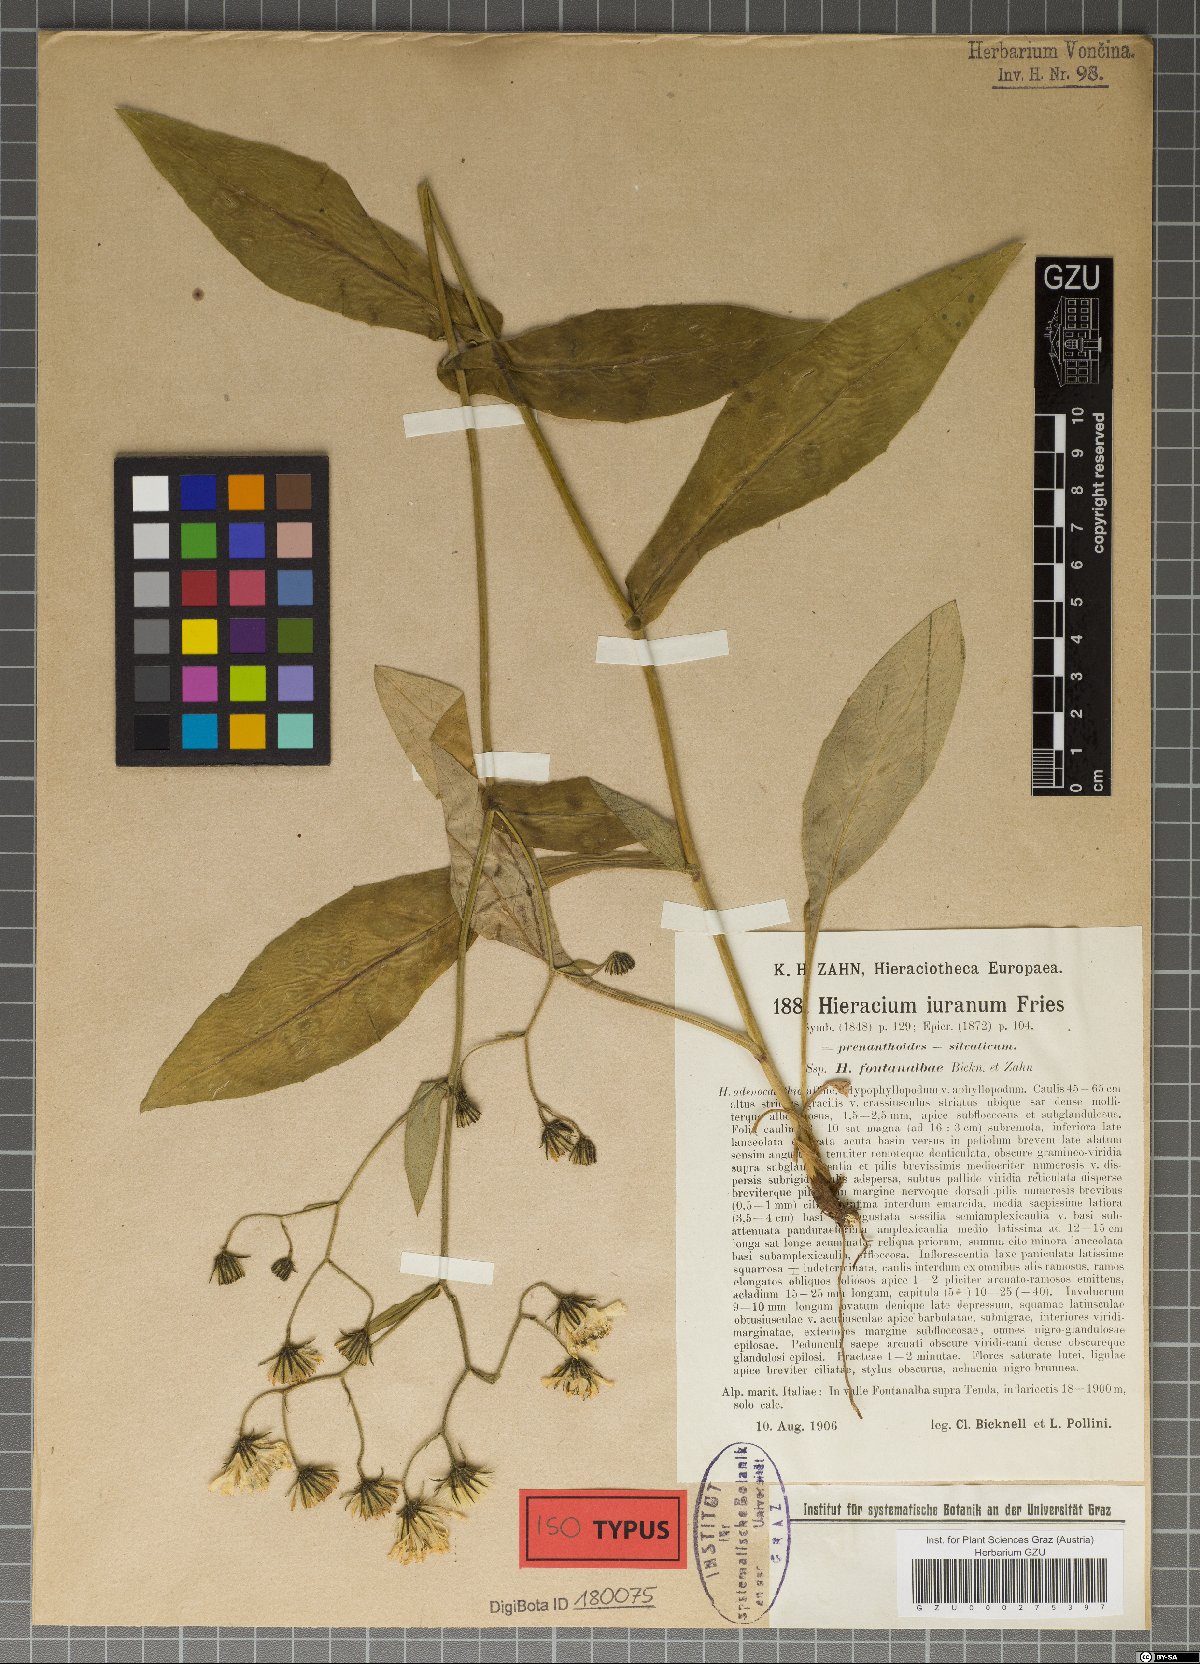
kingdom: Plantae
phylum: Tracheophyta
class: Magnoliopsida
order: Asterales
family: Asteraceae
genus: Hieracium
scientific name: Hieracium jurassicum
